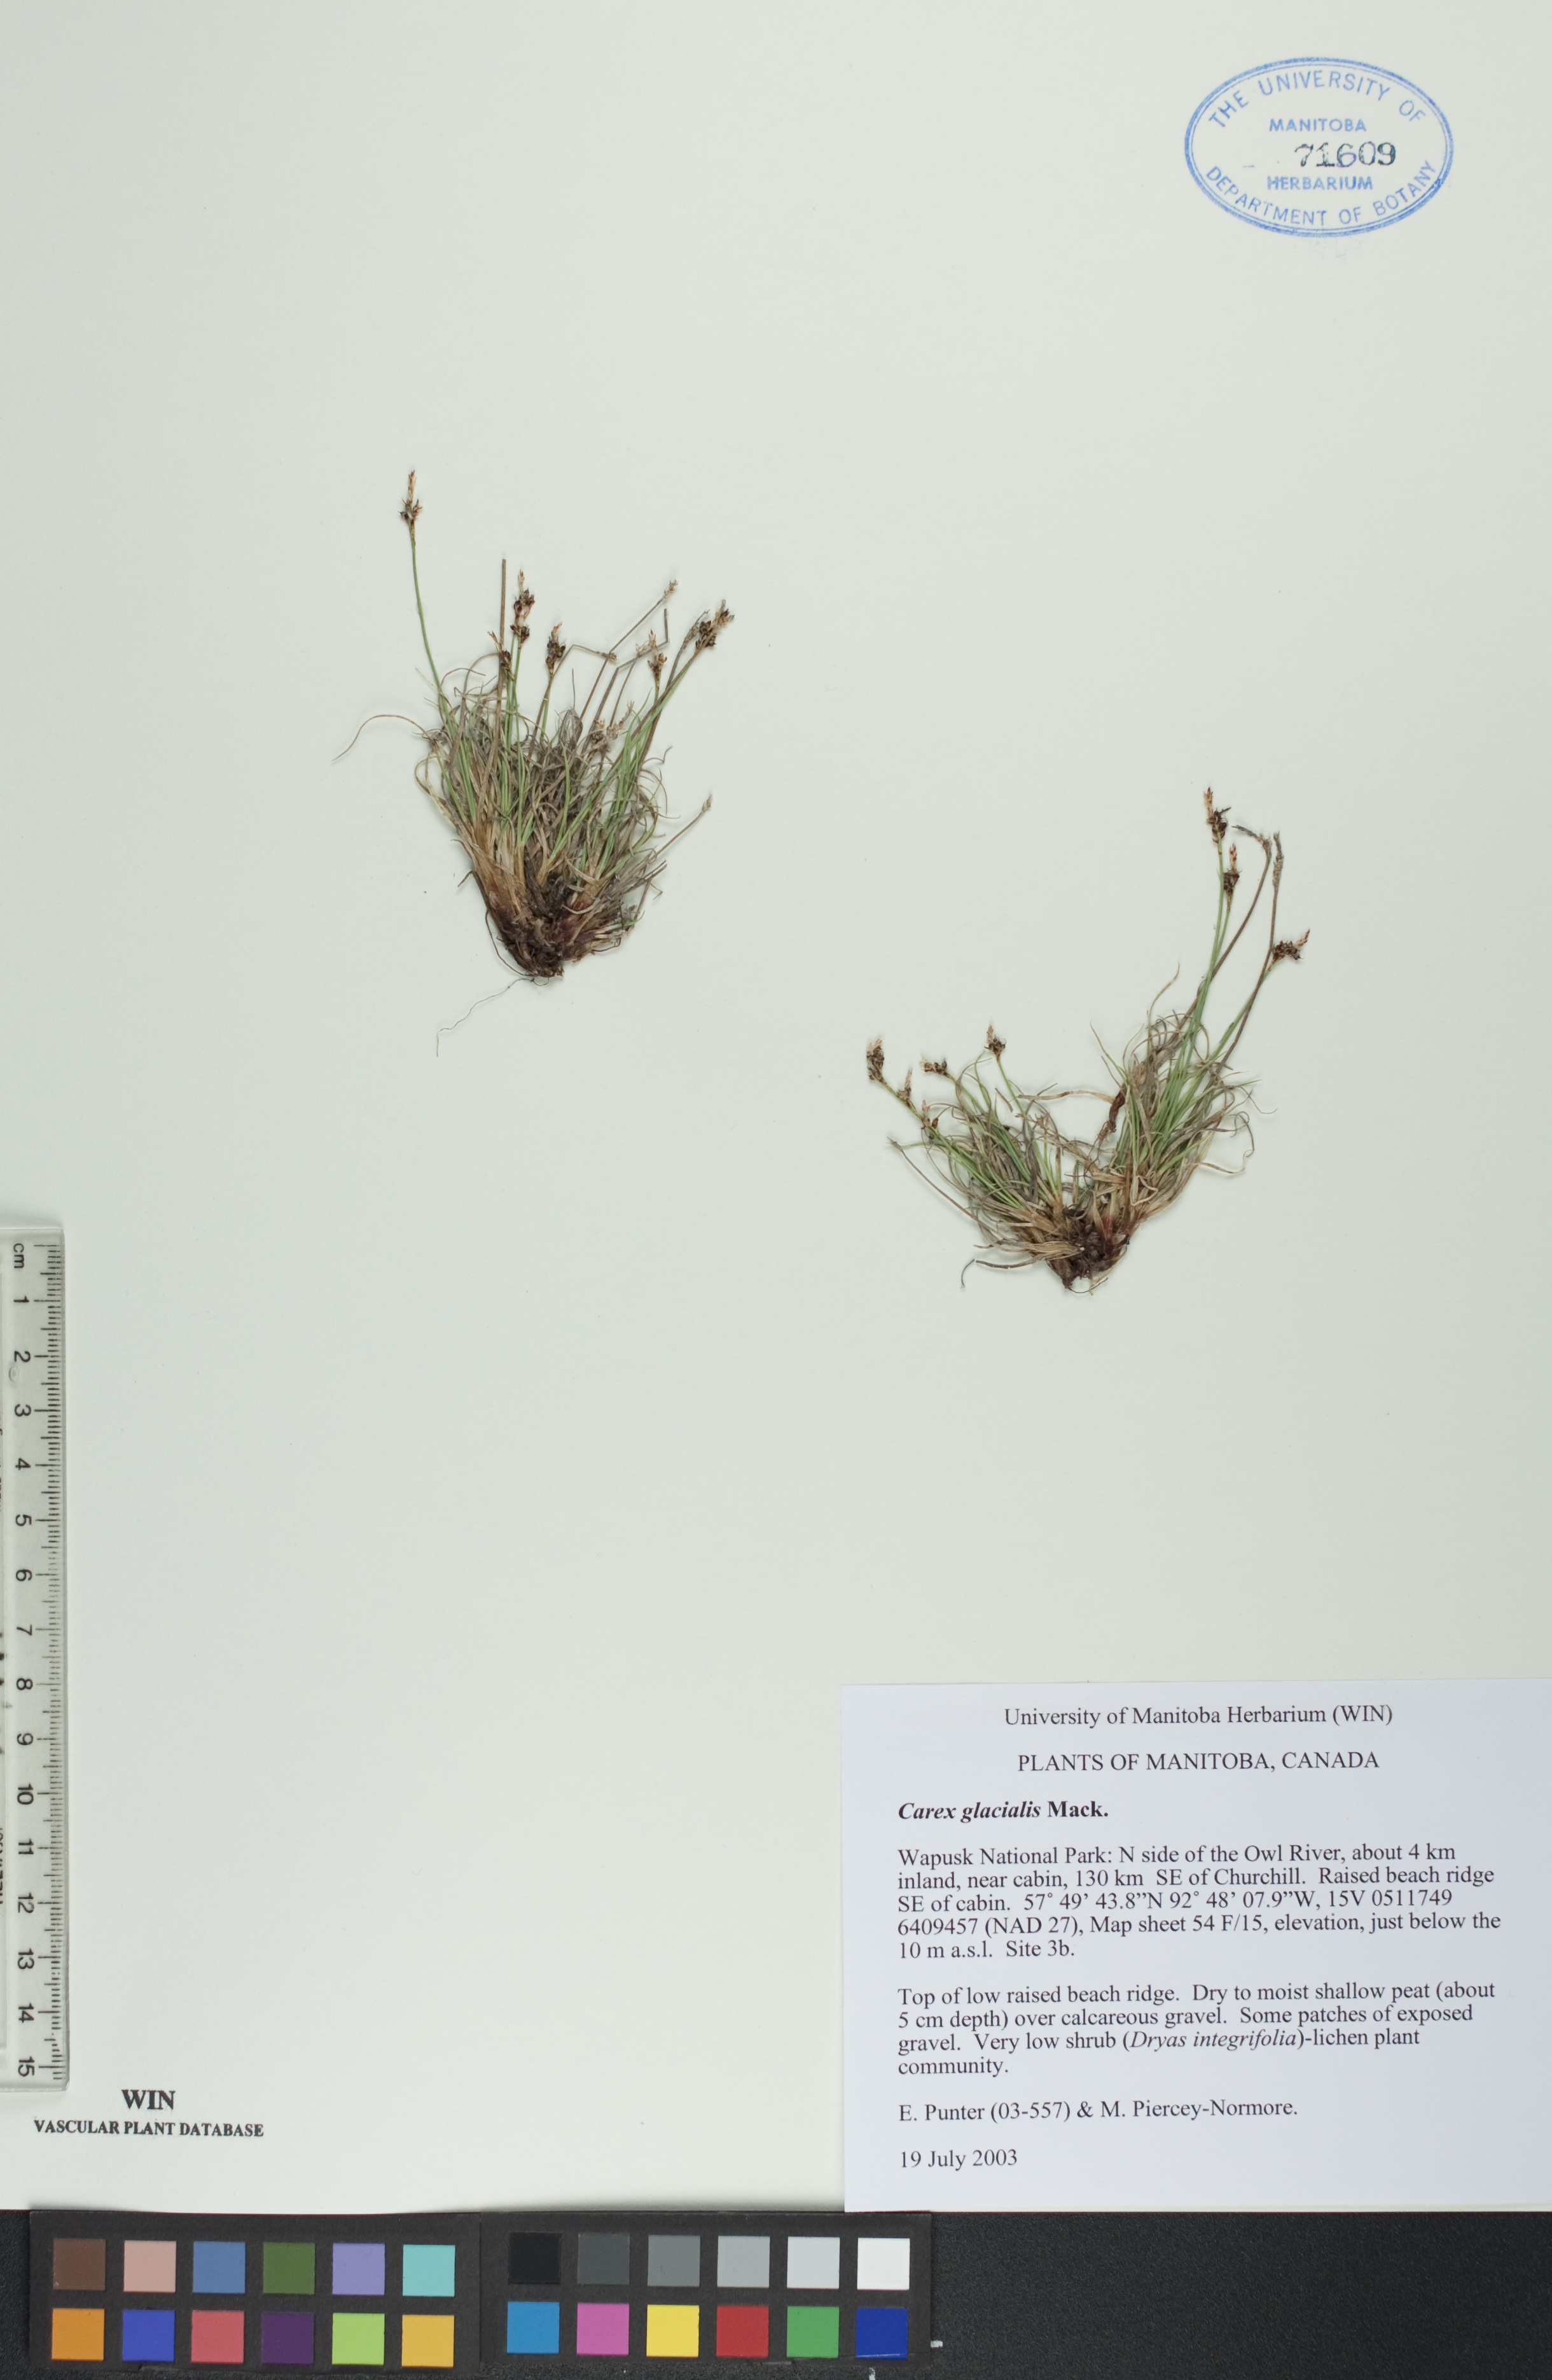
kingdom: Plantae
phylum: Tracheophyta
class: Liliopsida
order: Poales
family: Cyperaceae
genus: Carex
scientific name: Carex glacialis
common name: Newfoundland sedge
